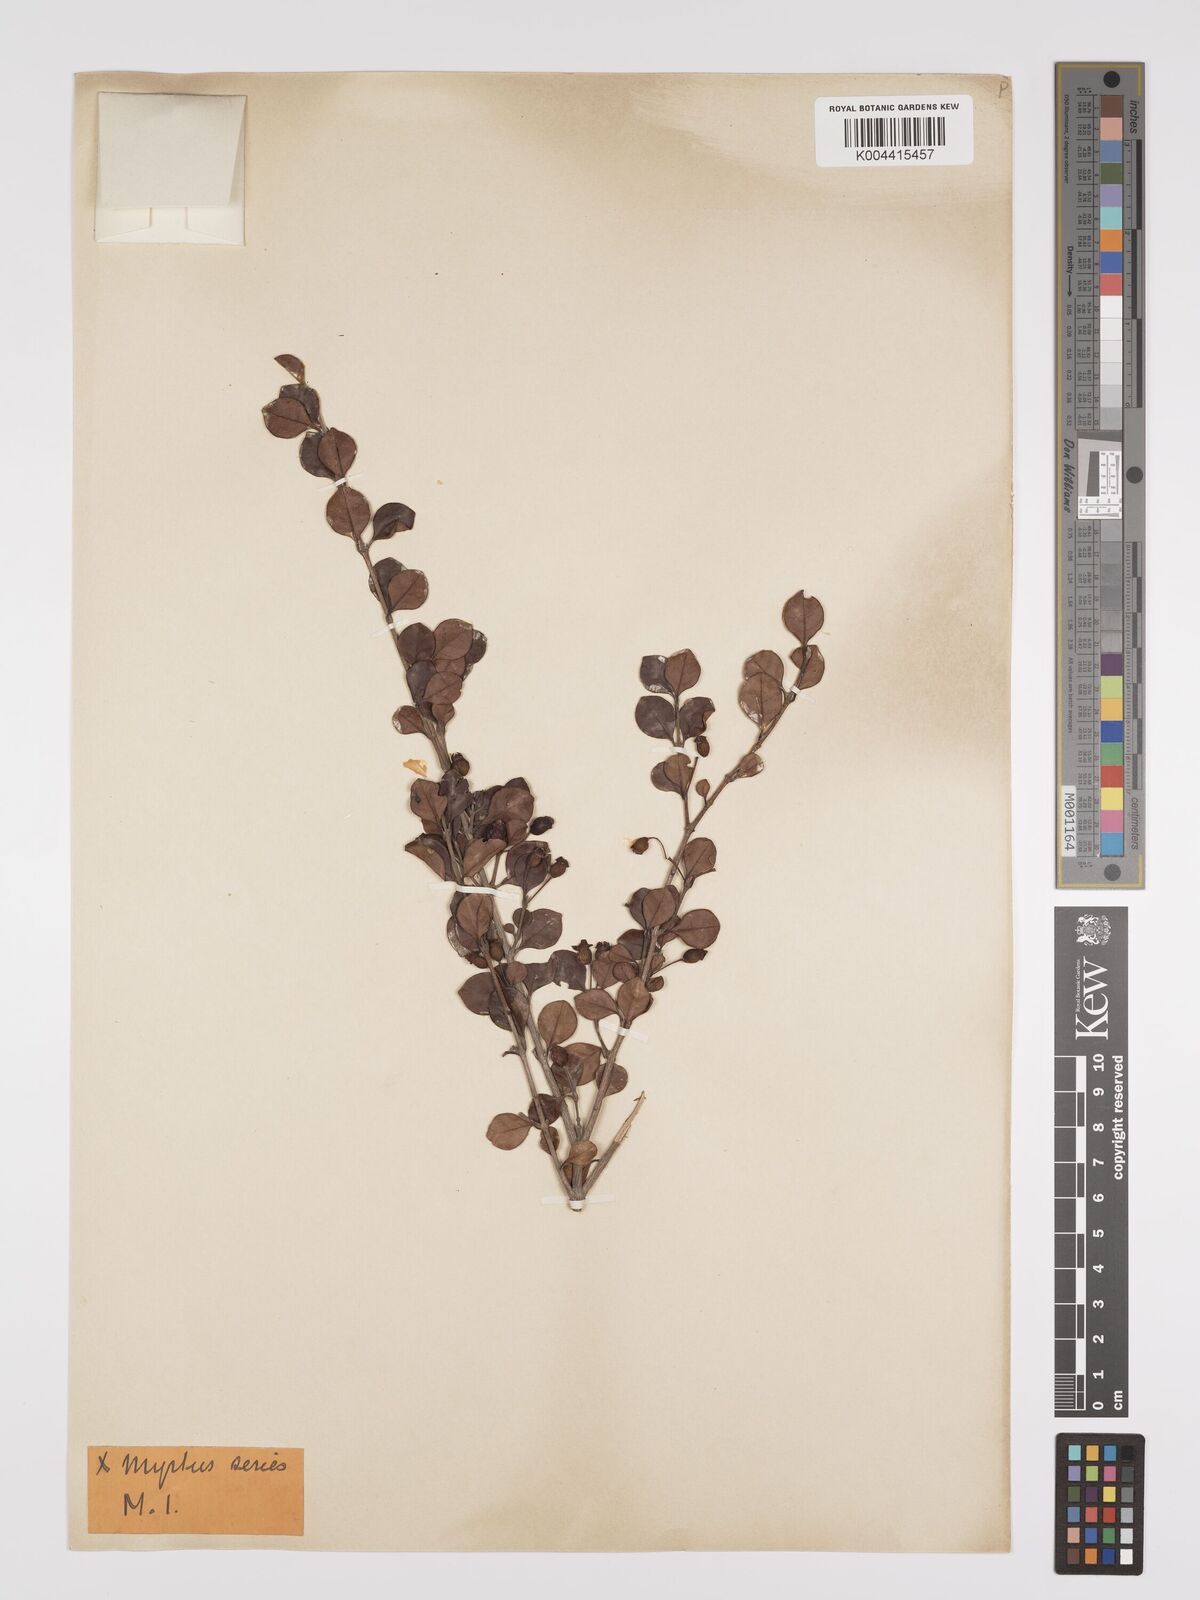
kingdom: Plantae
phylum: Tracheophyta
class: Magnoliopsida
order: Myrtales
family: Myrtaceae
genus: Lophomyrtus
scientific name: Lophomyrtus bullata
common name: Rama rama
